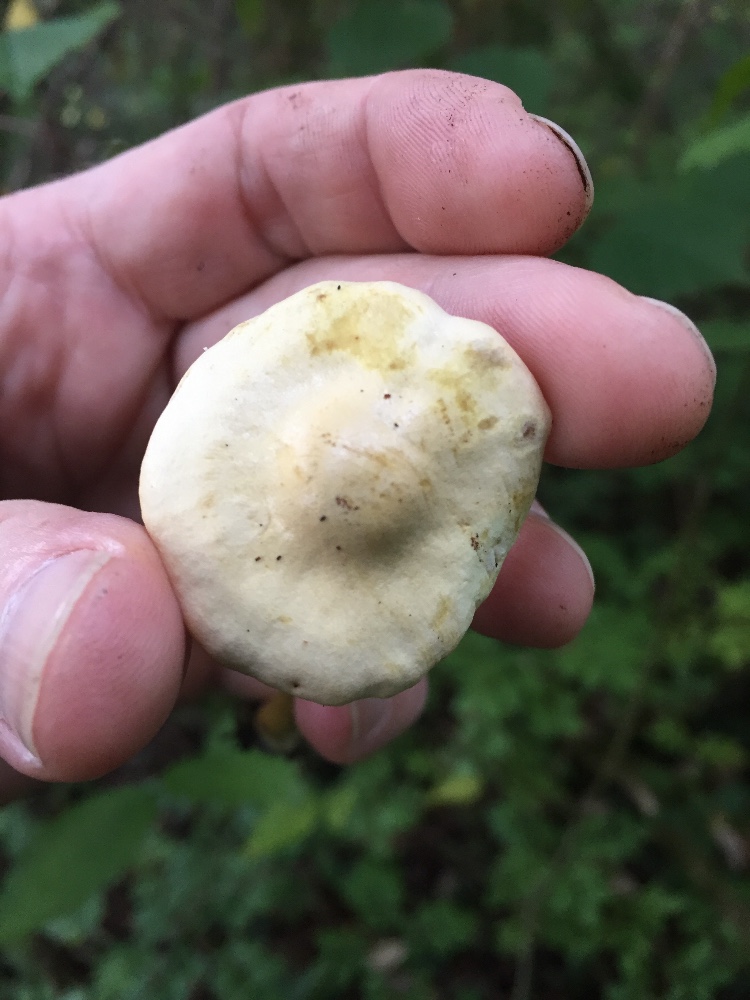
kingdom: Fungi
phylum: Basidiomycota
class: Agaricomycetes
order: Agaricales
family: Tricholomataceae
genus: Tricholoma
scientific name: Tricholoma sulphureum
